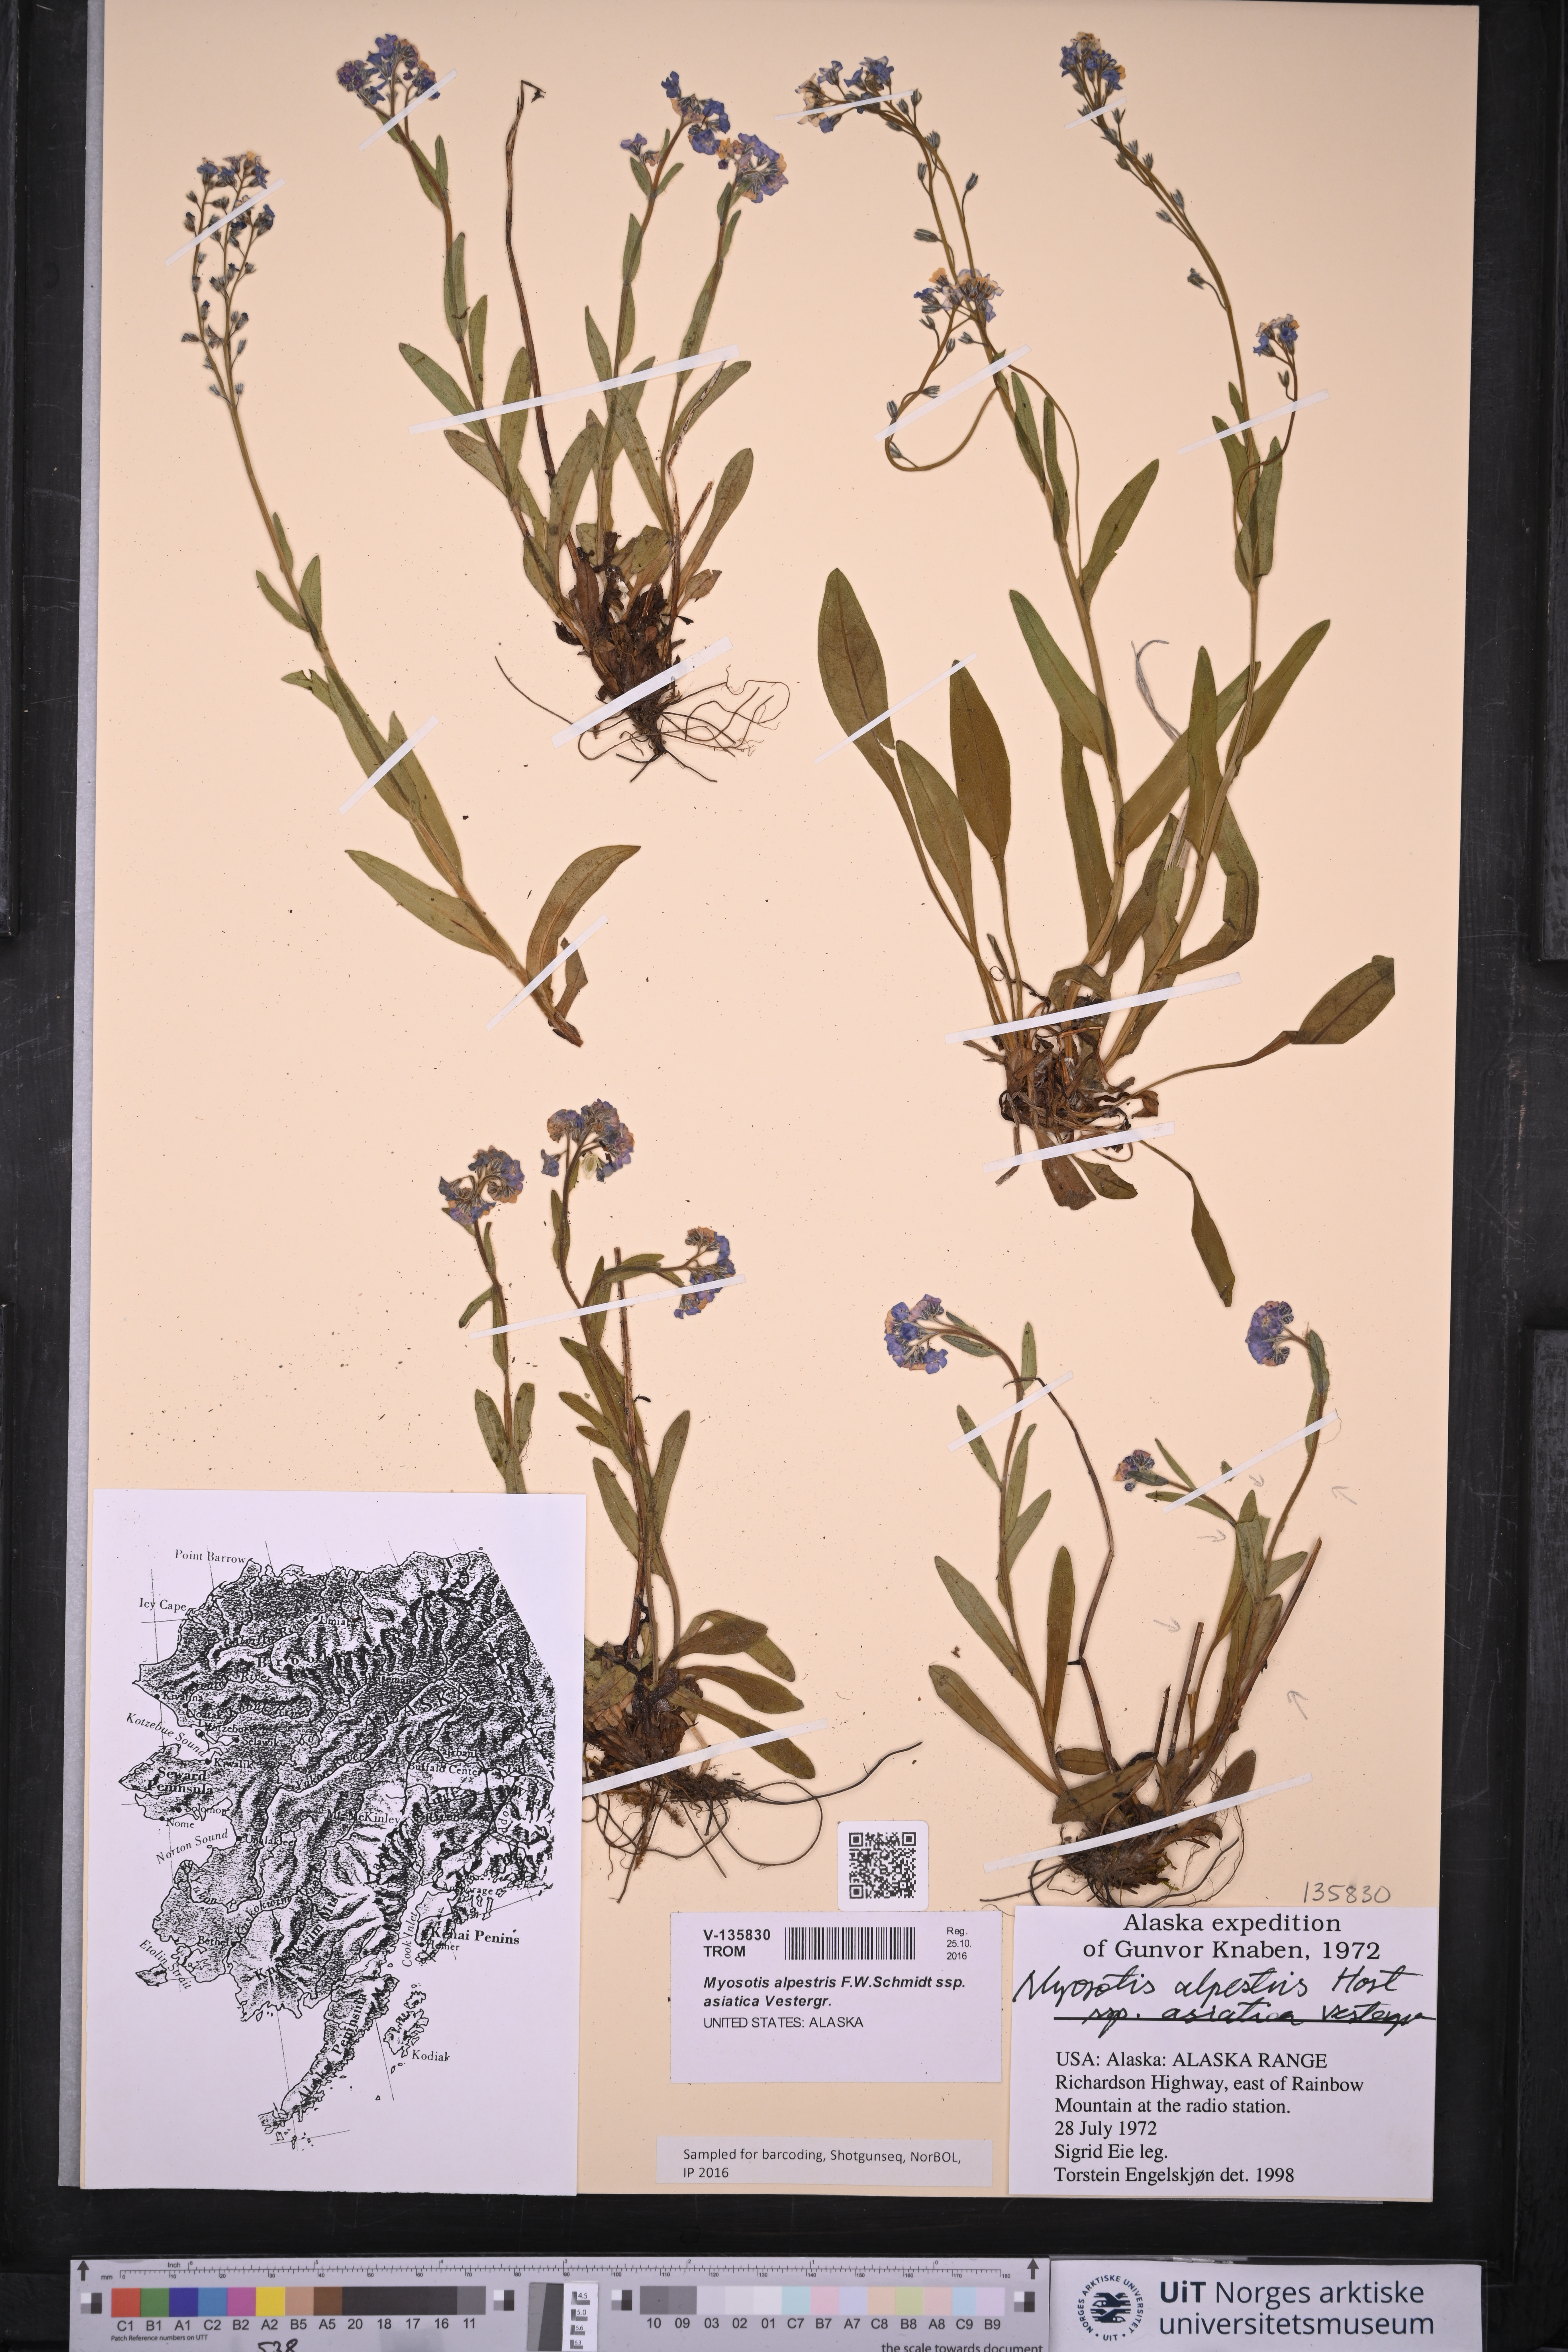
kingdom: Plantae
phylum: Tracheophyta
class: Magnoliopsida
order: Boraginales
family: Boraginaceae
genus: Myosotis
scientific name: Myosotis asiatica
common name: Asian forget-me-not
